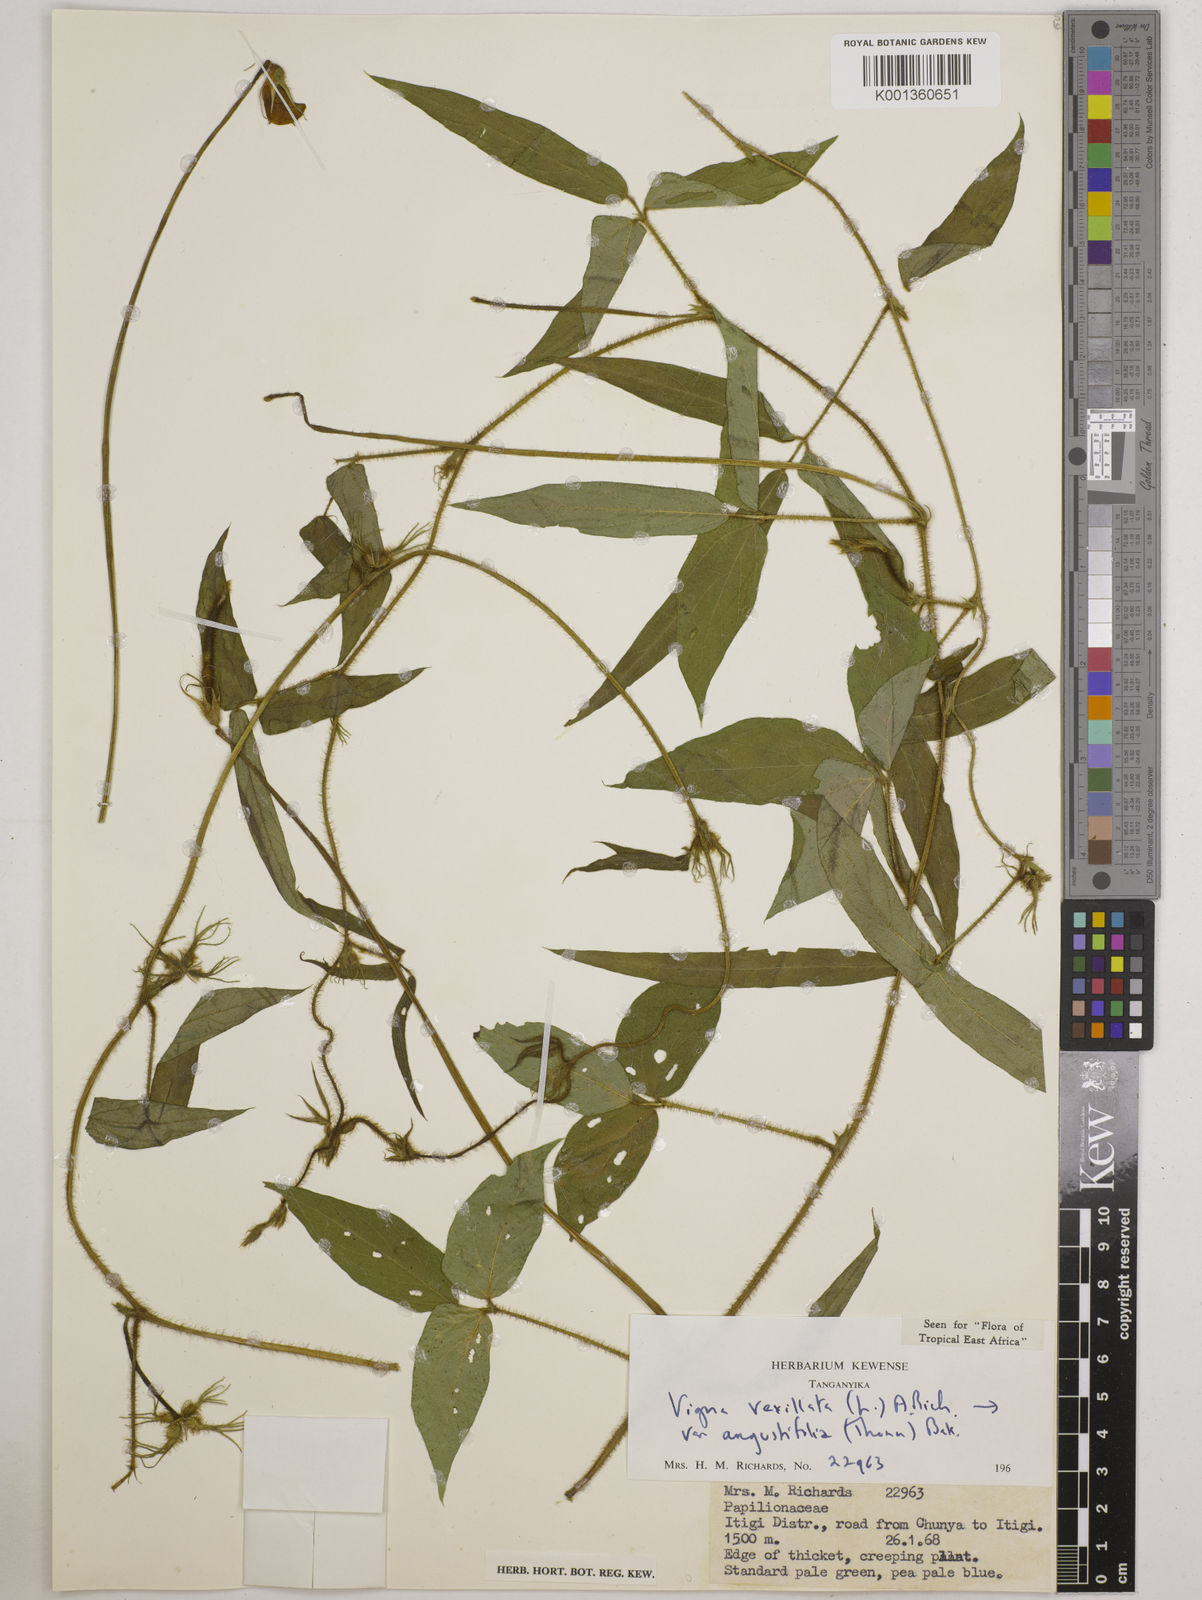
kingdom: Plantae
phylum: Tracheophyta
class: Magnoliopsida
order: Fabales
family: Fabaceae
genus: Vigna
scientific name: Vigna vexillata
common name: Zombi pea
